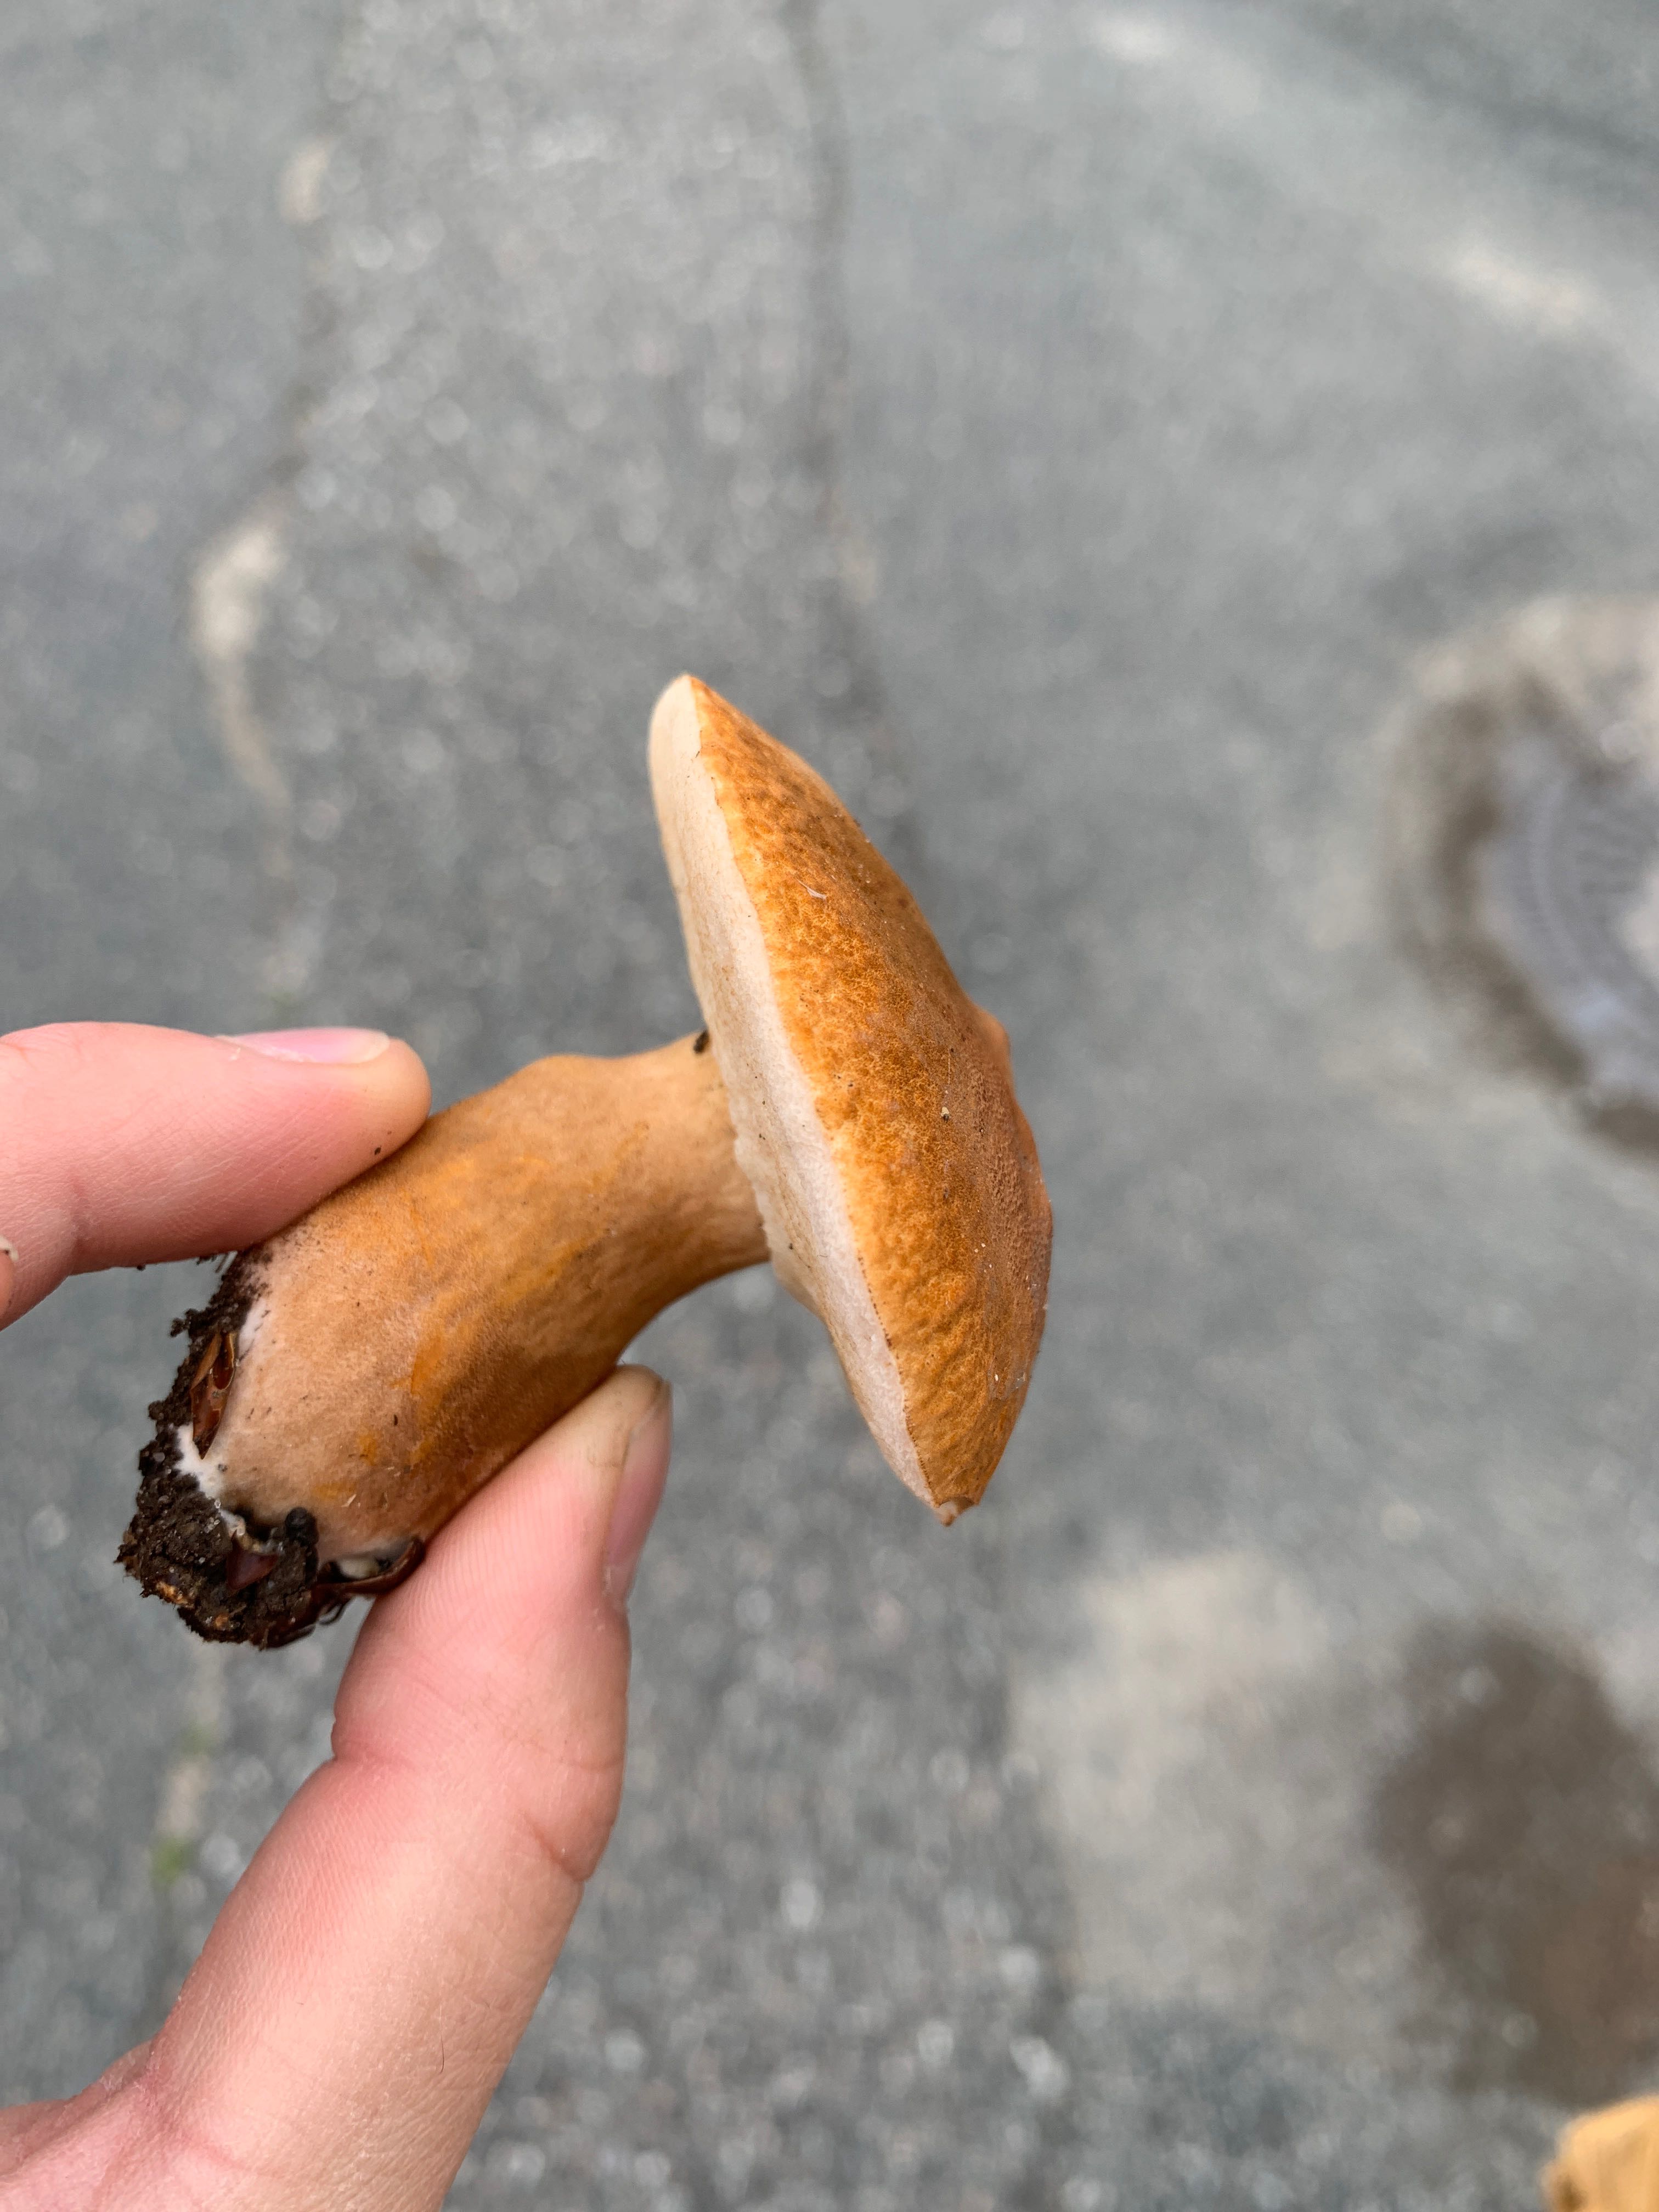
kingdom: Fungi
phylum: Basidiomycota
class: Agaricomycetes
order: Boletales
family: Gyroporaceae
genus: Gyroporus
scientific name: Gyroporus castaneus
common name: kastanie-kammerrørhat
